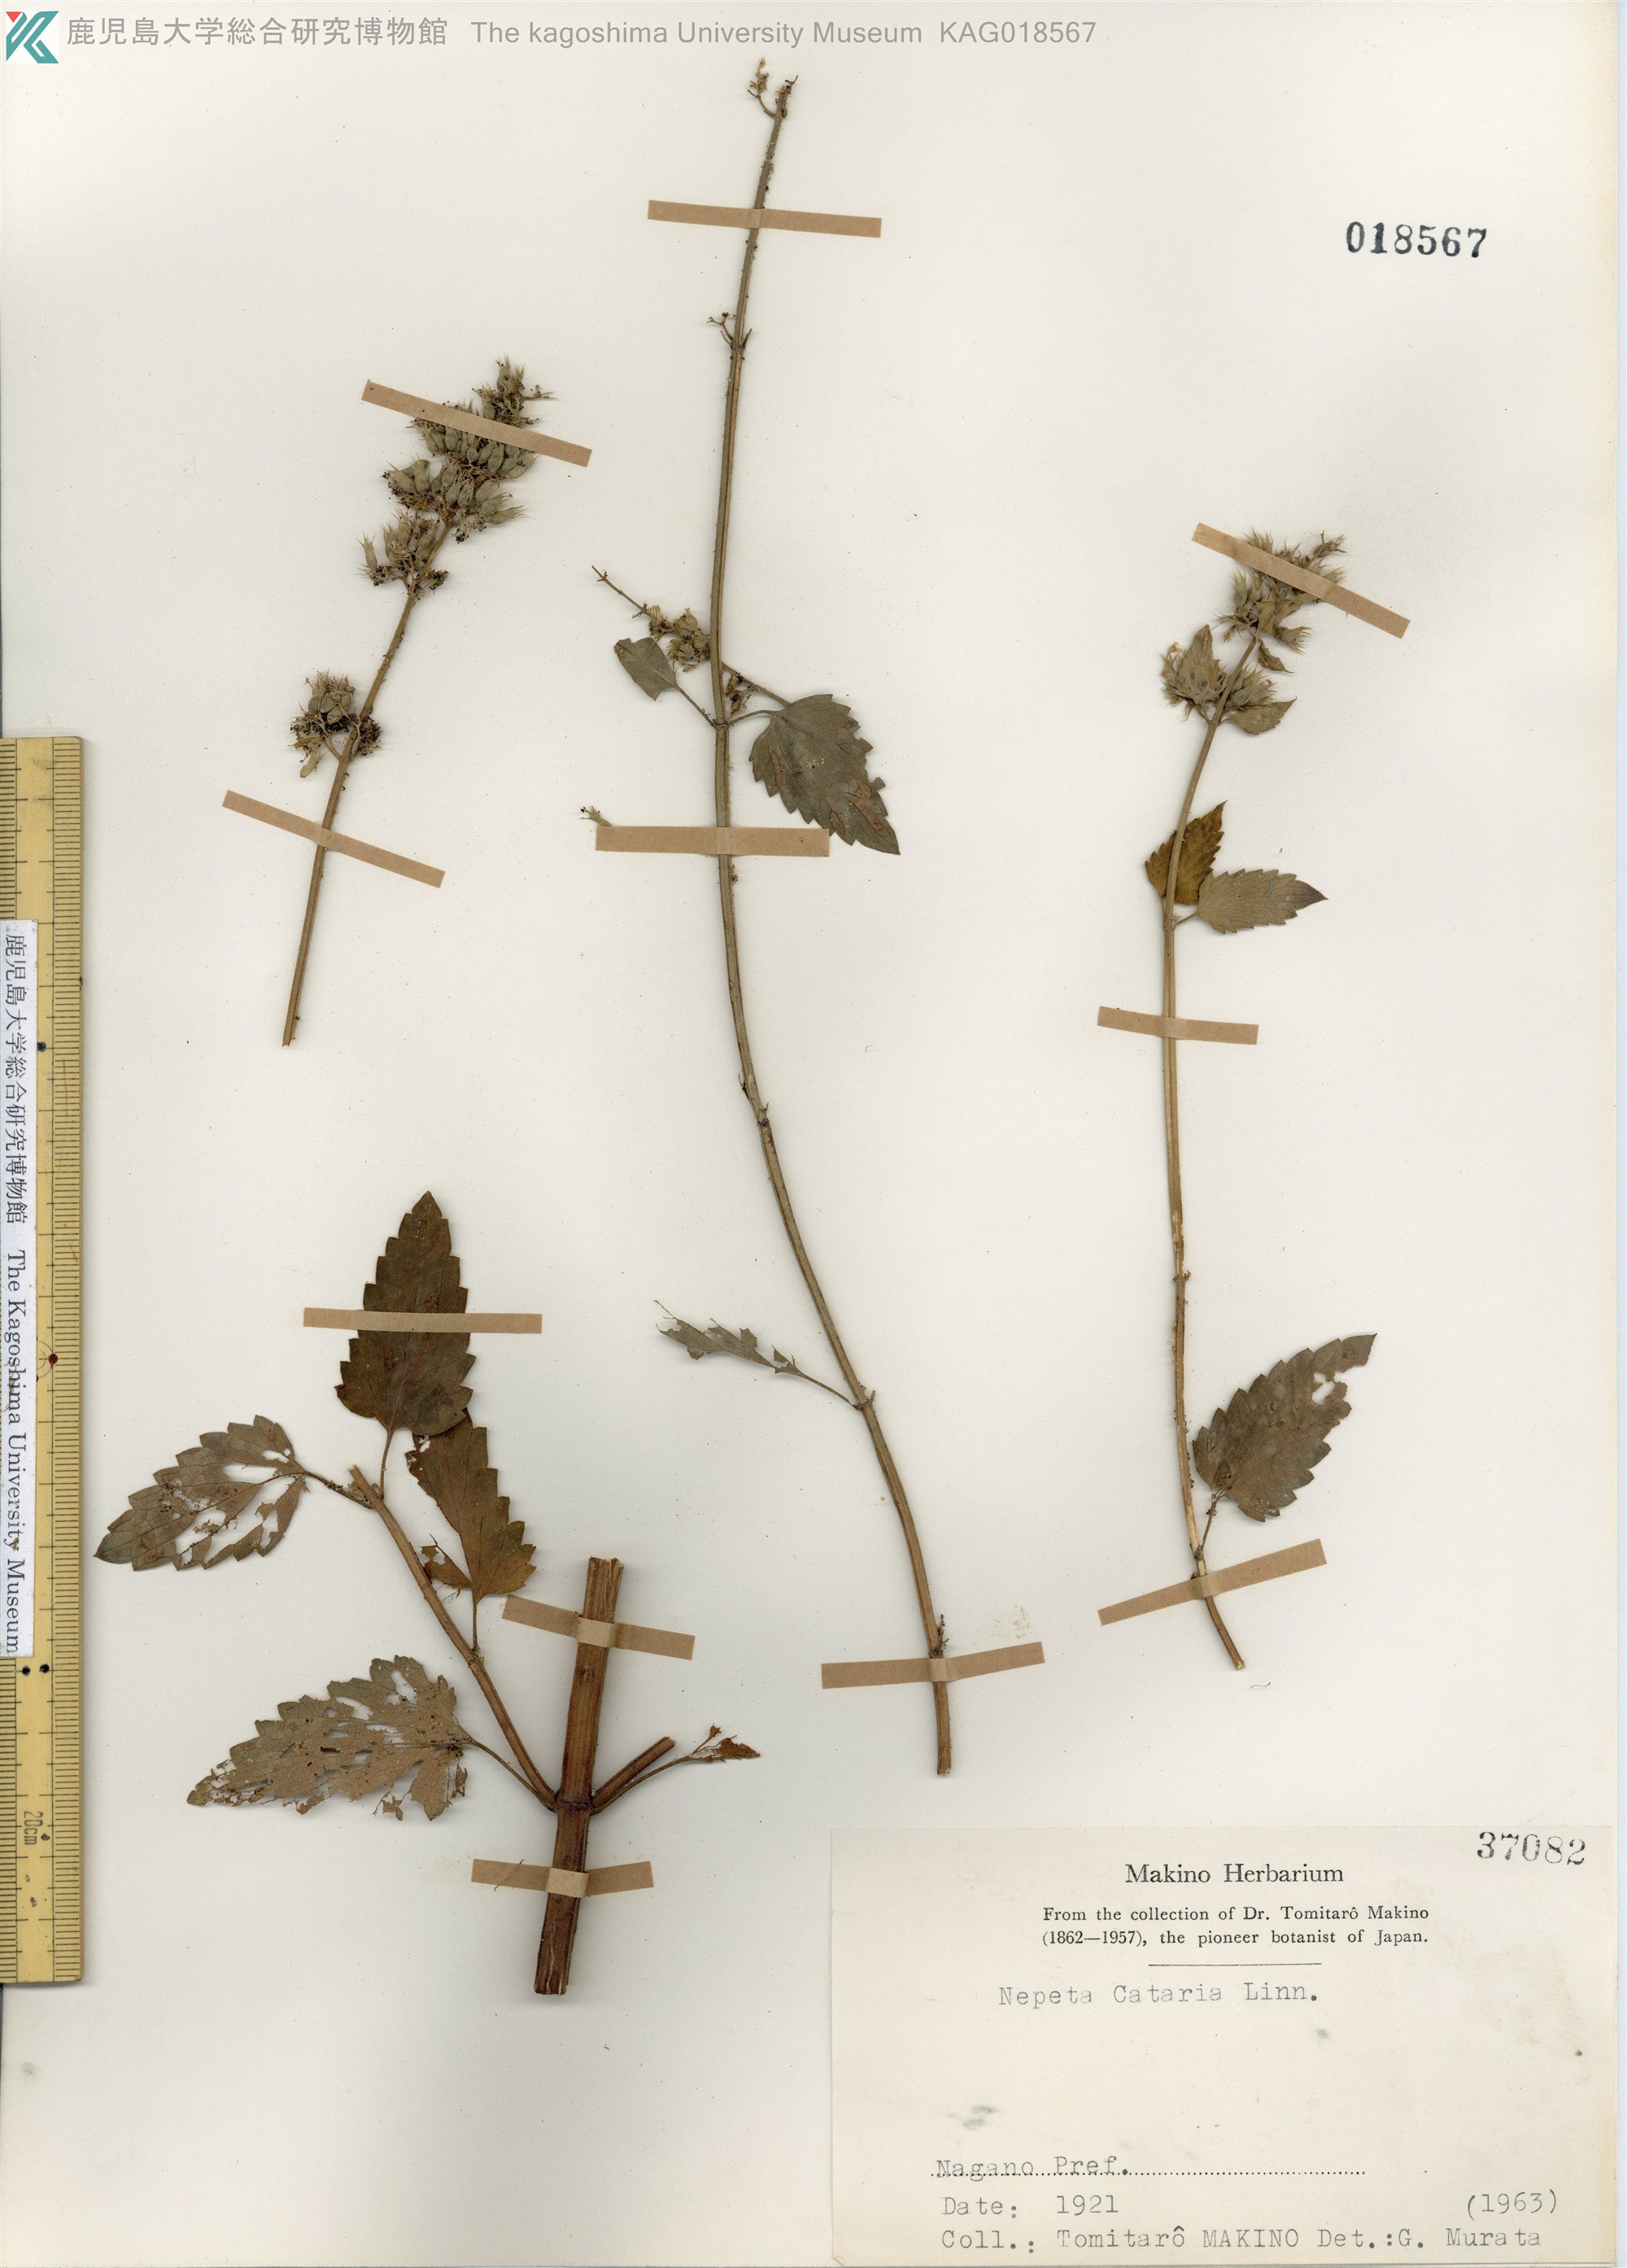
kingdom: Plantae
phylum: Tracheophyta
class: Magnoliopsida
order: Lamiales
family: Lamiaceae
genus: Nepeta
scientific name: Nepeta cataria
